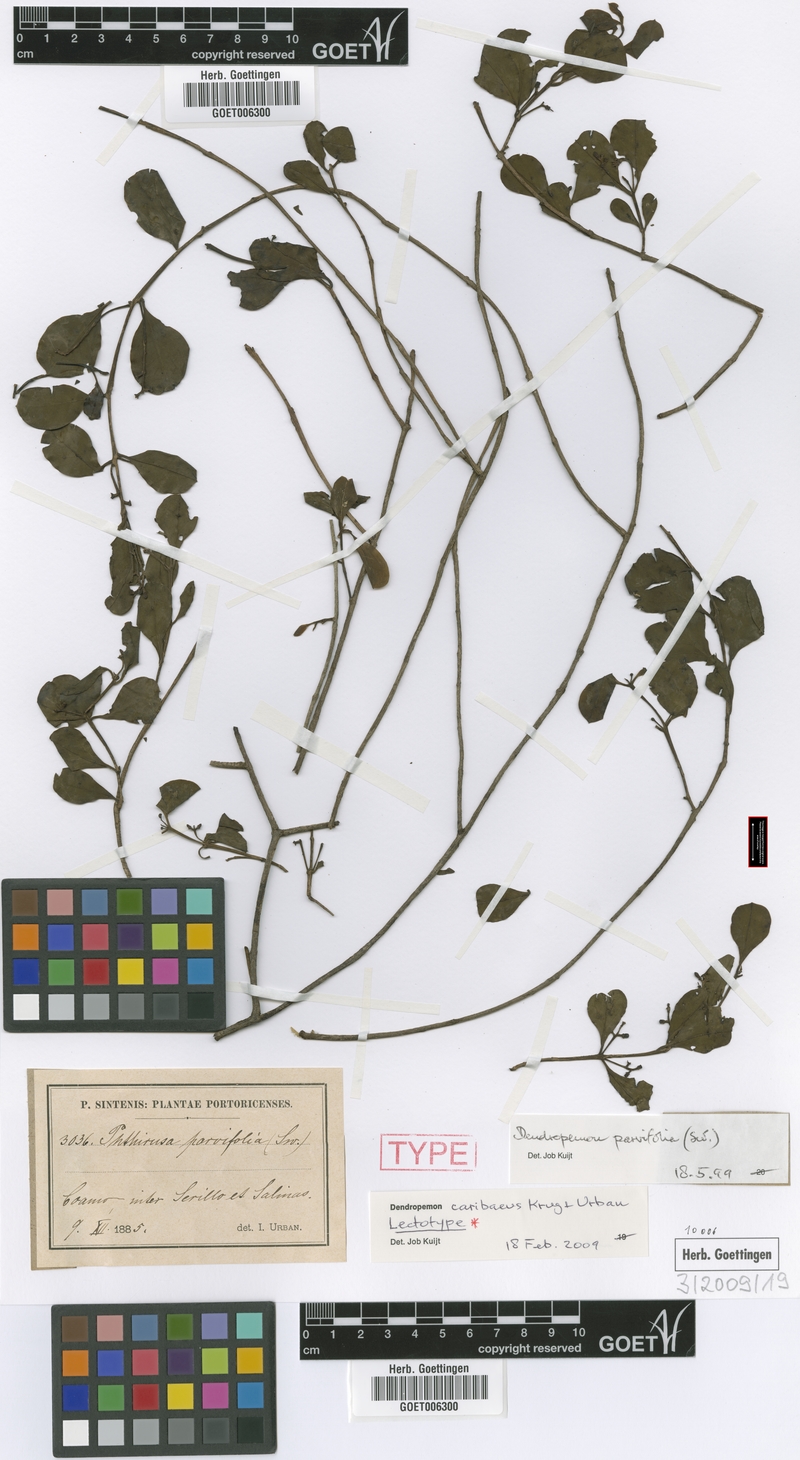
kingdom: Plantae
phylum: Tracheophyta
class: Magnoliopsida
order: Santalales
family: Loranthaceae
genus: Dendropemon
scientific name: Dendropemon caribaeus
